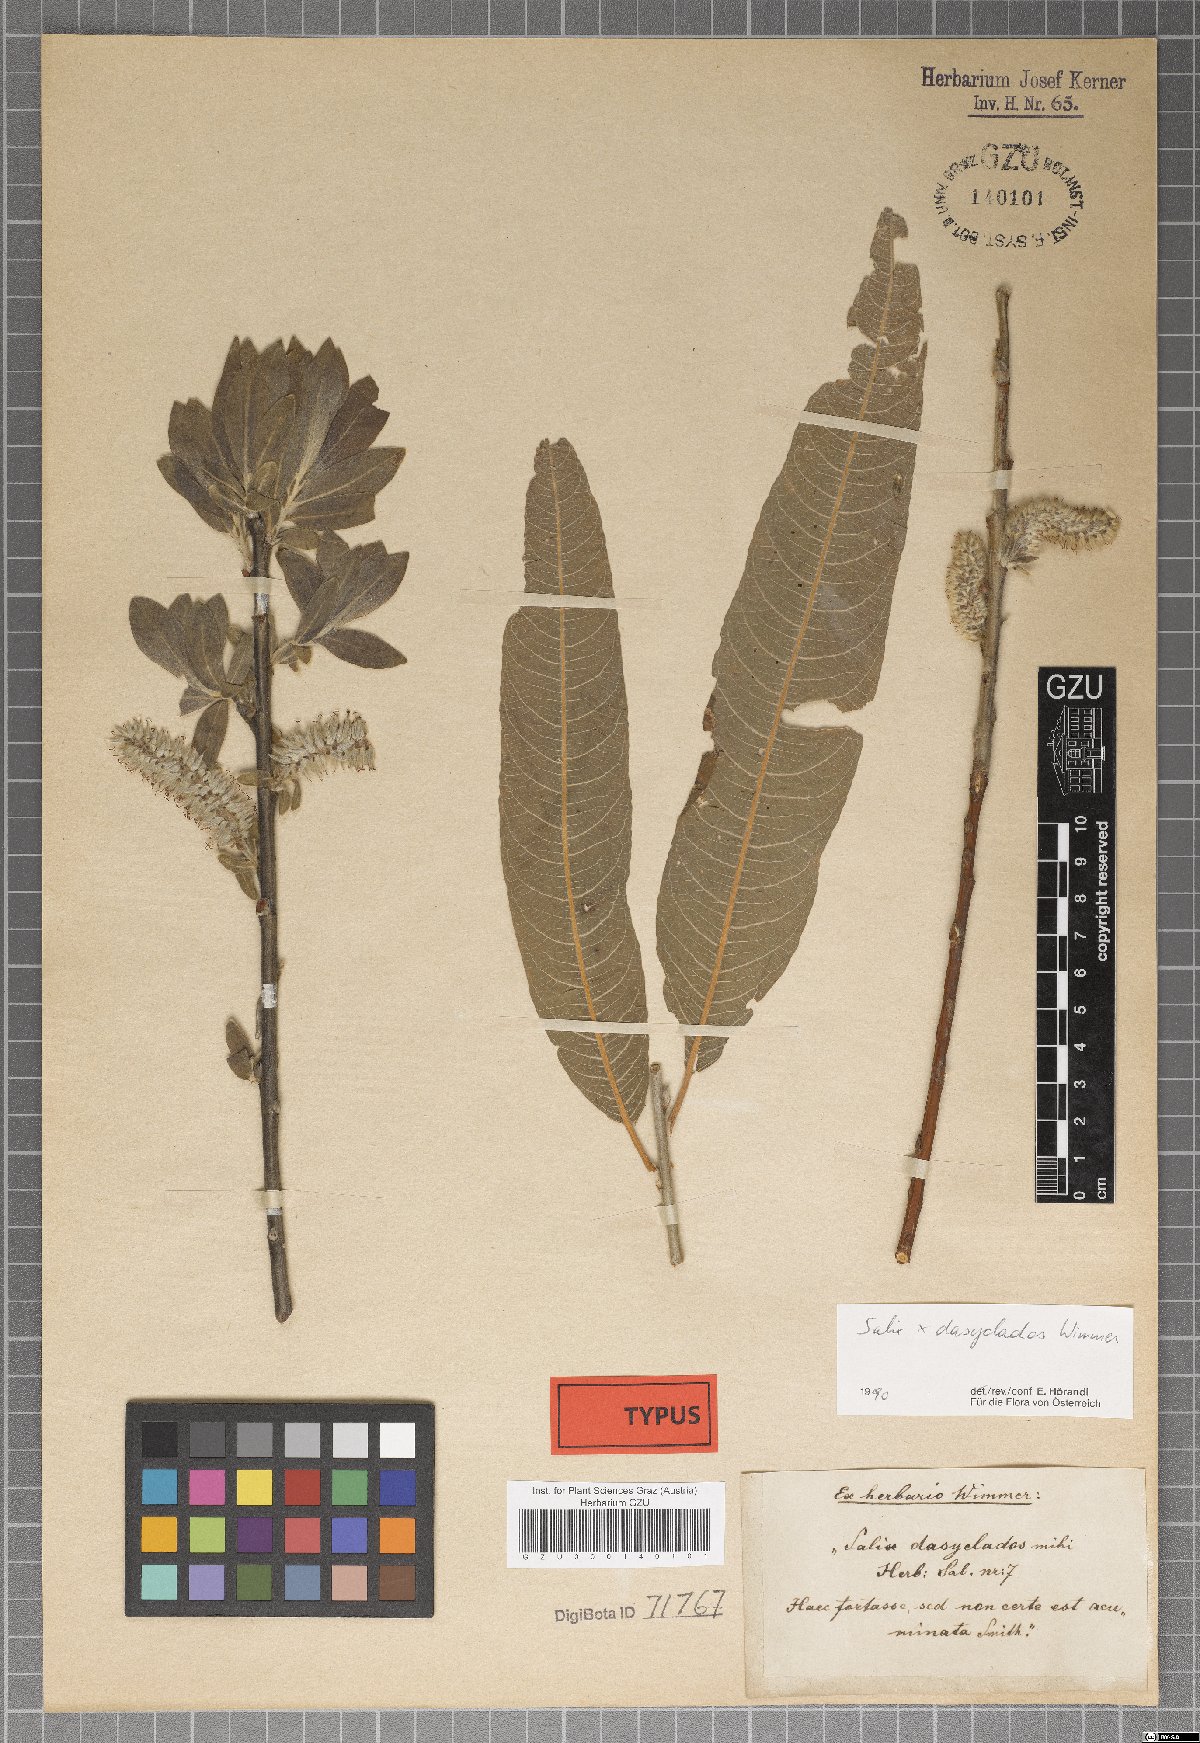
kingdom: Plantae
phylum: Tracheophyta
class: Magnoliopsida
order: Malpighiales
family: Salicaceae
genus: Salix
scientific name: Salix gmelinii
